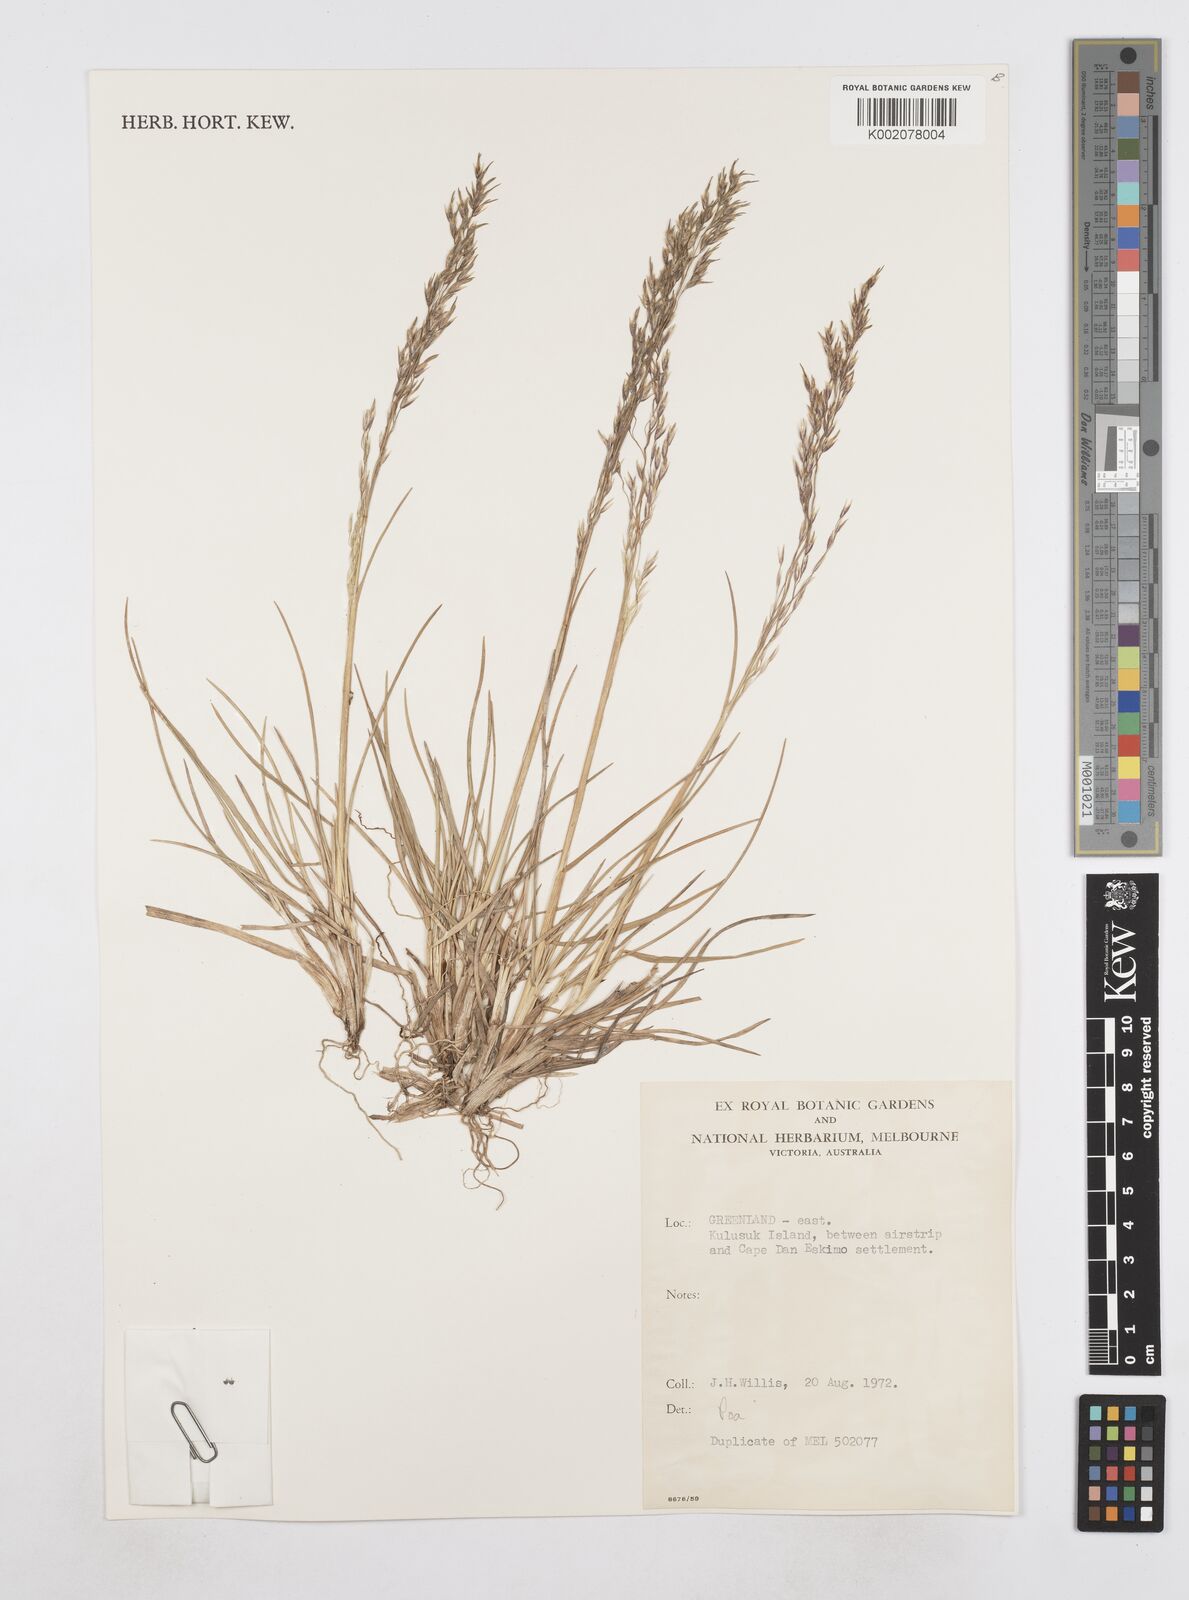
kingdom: Plantae
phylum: Tracheophyta
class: Liliopsida
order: Poales
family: Poaceae
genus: Poa
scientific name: Poa
